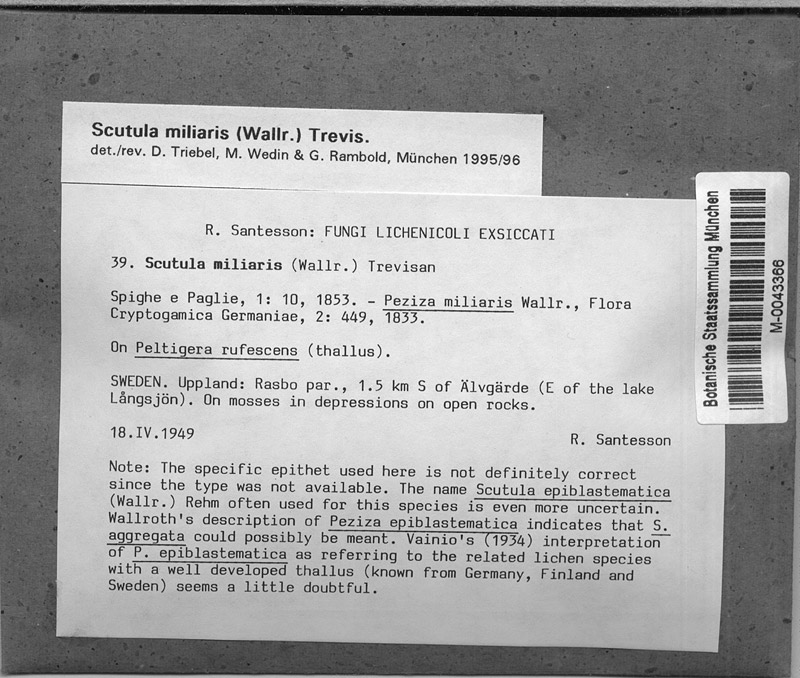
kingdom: Fungi
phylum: Ascomycota
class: Lecanoromycetes
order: Peltigerales
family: Peltigeraceae
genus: Peltigera
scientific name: Peltigera rufescens
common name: Field dog lichen
